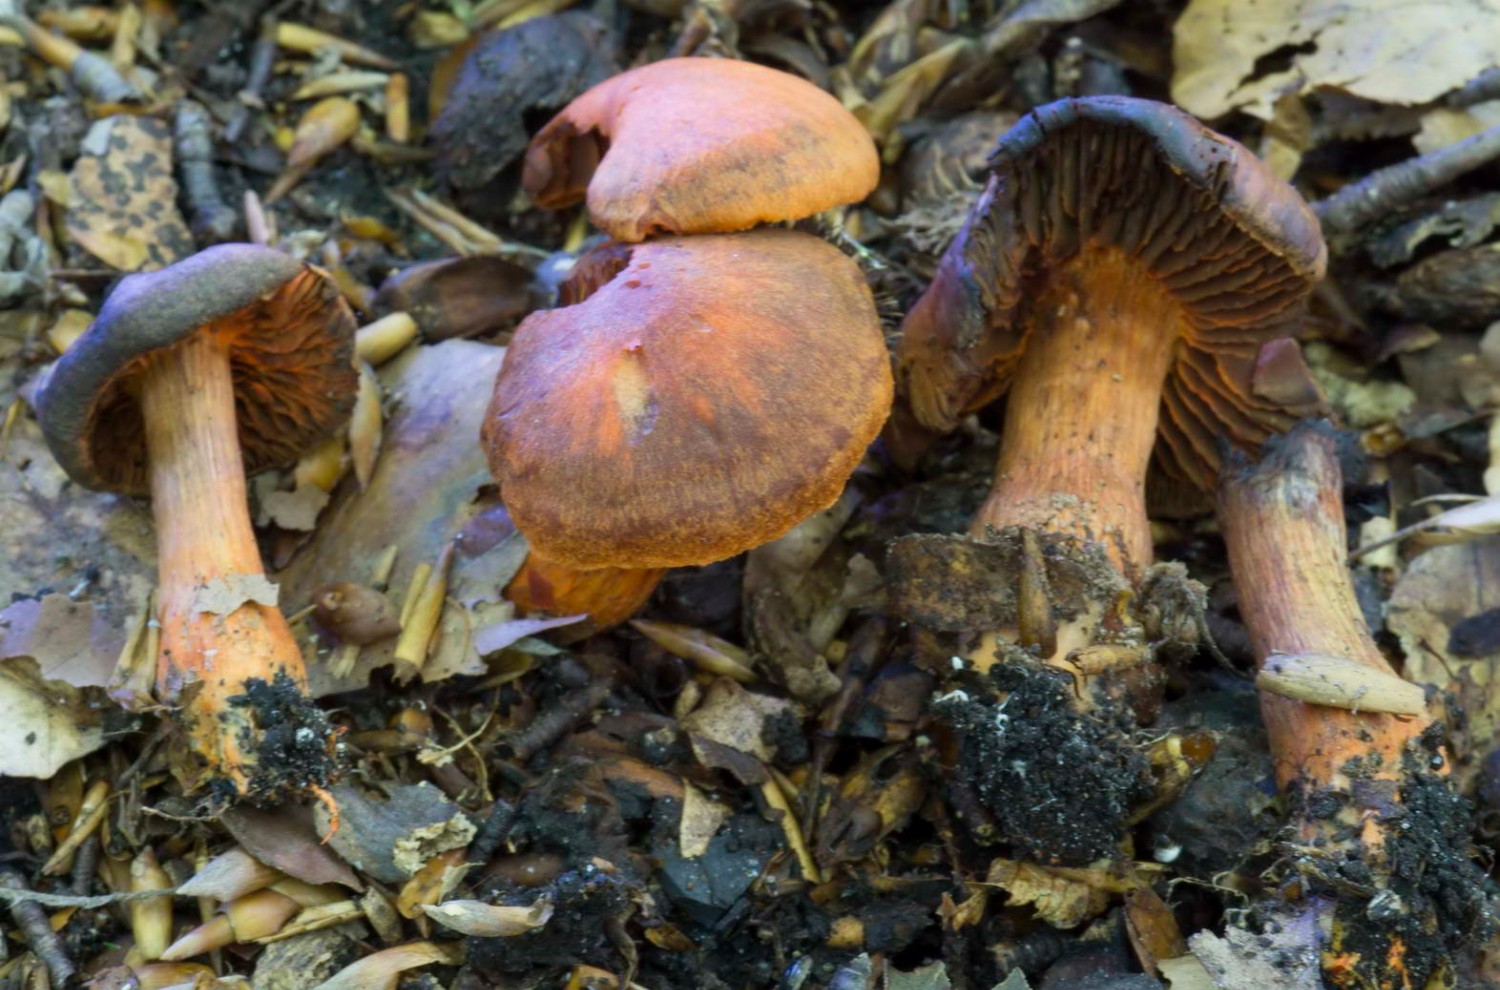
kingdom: Fungi
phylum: Basidiomycota
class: Agaricomycetes
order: Agaricales
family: Cortinariaceae
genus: Cortinarius
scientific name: Cortinarius cinnabarinus
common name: cinnober-slørhat
